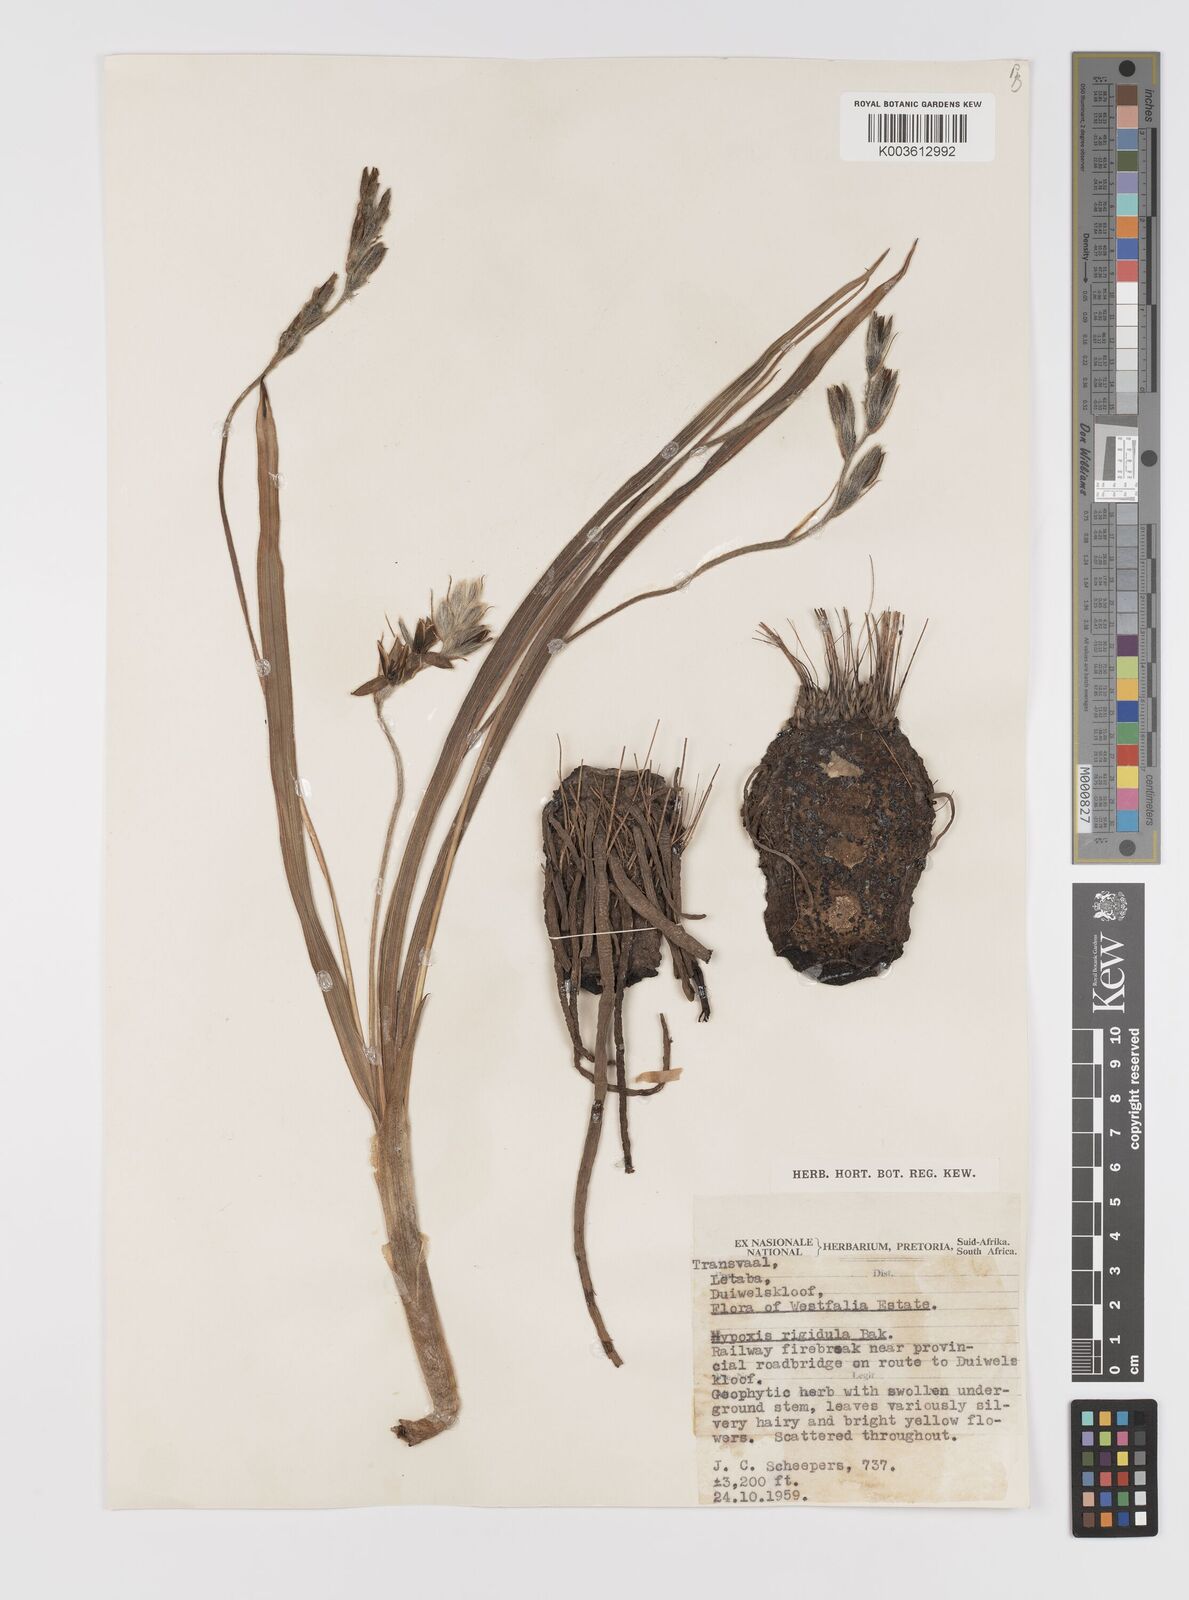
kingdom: Plantae
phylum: Tracheophyta
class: Liliopsida
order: Asparagales
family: Hypoxidaceae
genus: Hypoxis
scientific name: Hypoxis rigidula
